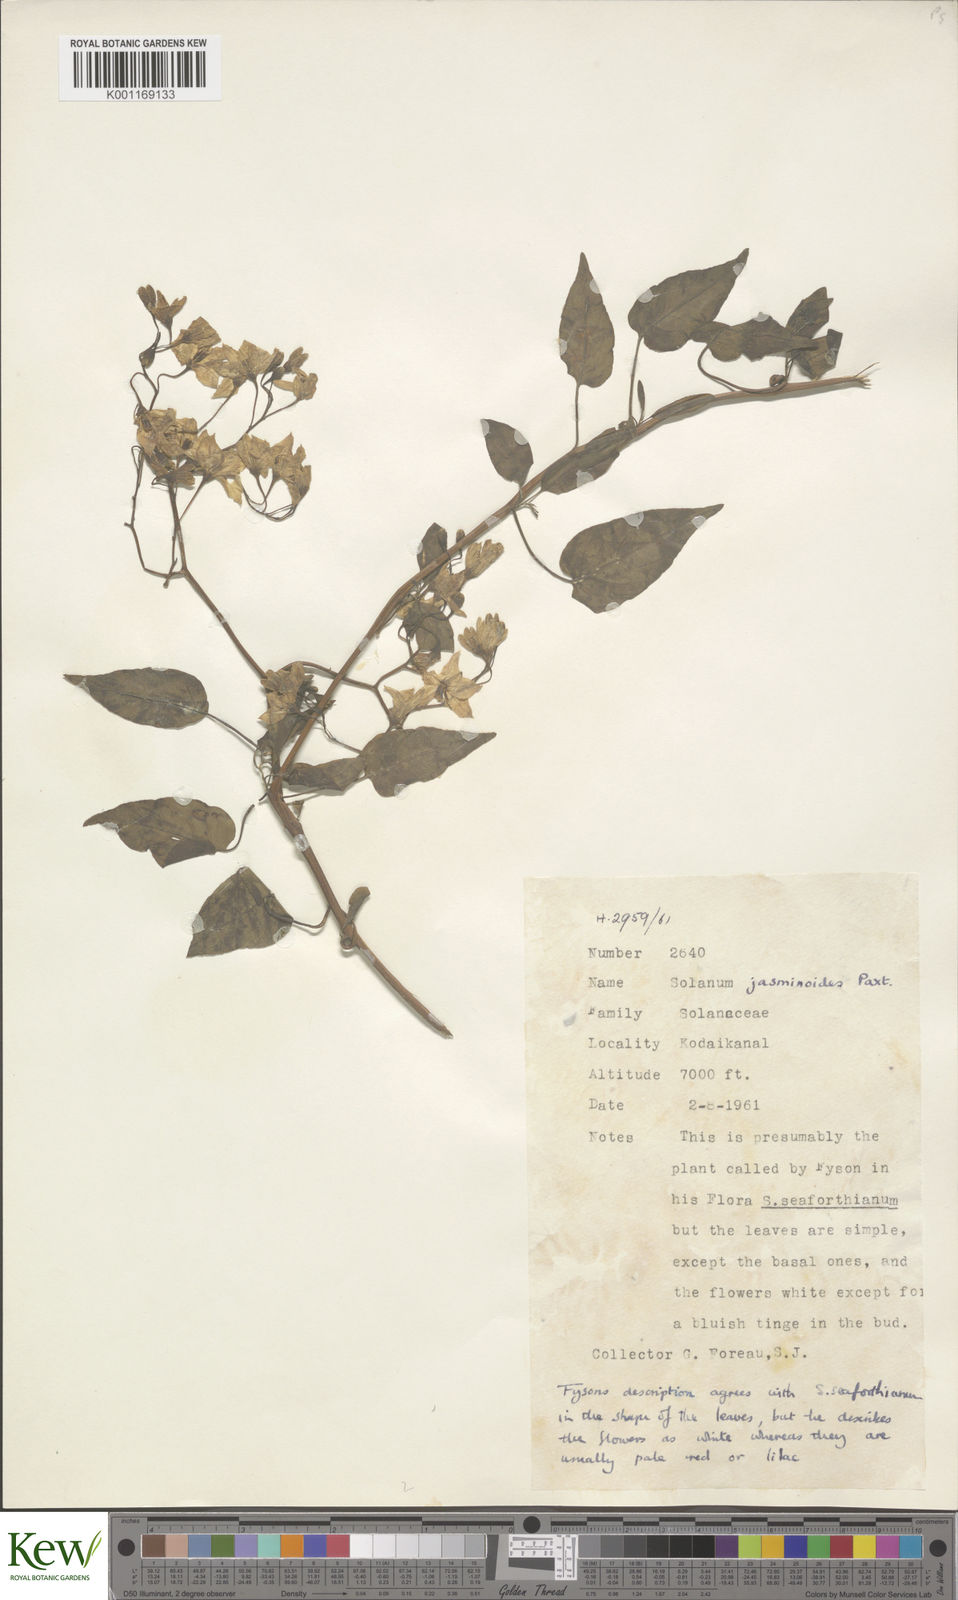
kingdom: Plantae
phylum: Tracheophyta
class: Magnoliopsida
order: Solanales
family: Solanaceae
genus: Solanum
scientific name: Solanum laxum
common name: Nightshade
